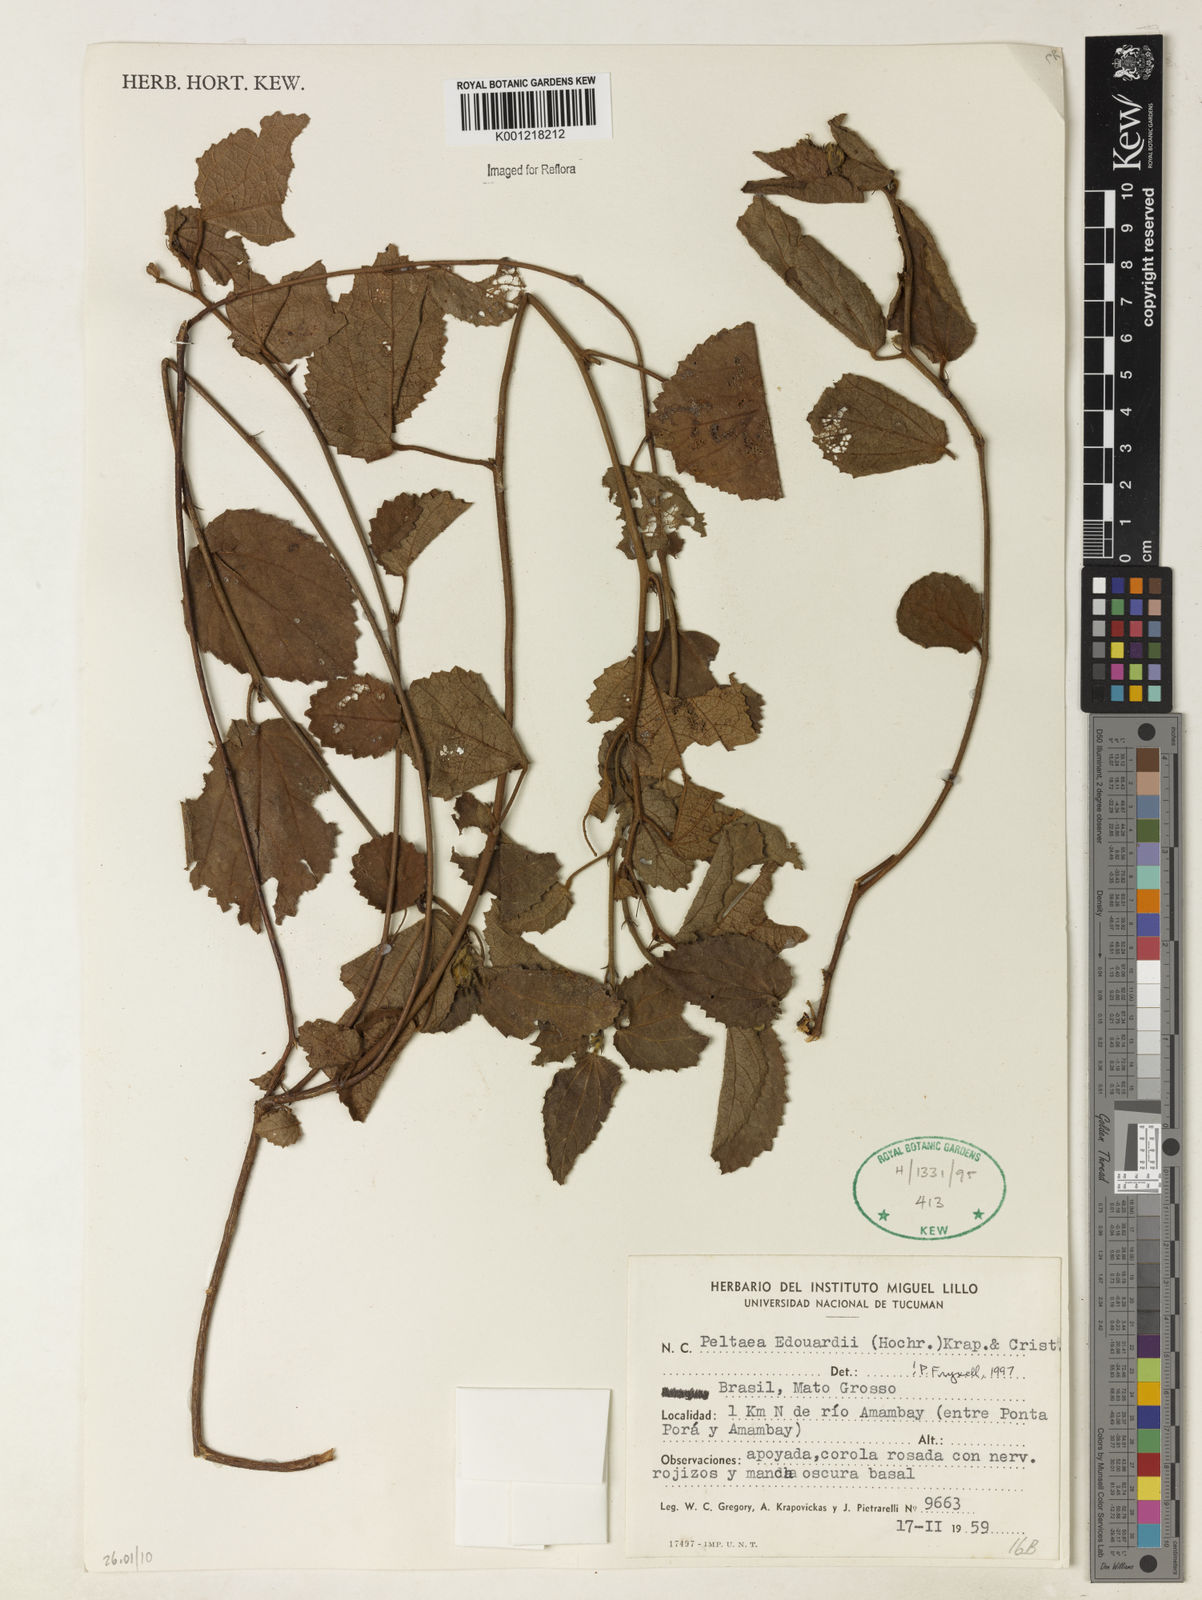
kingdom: Plantae
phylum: Tracheophyta
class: Magnoliopsida
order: Malvales
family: Malvaceae
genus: Peltaea
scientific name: Peltaea
